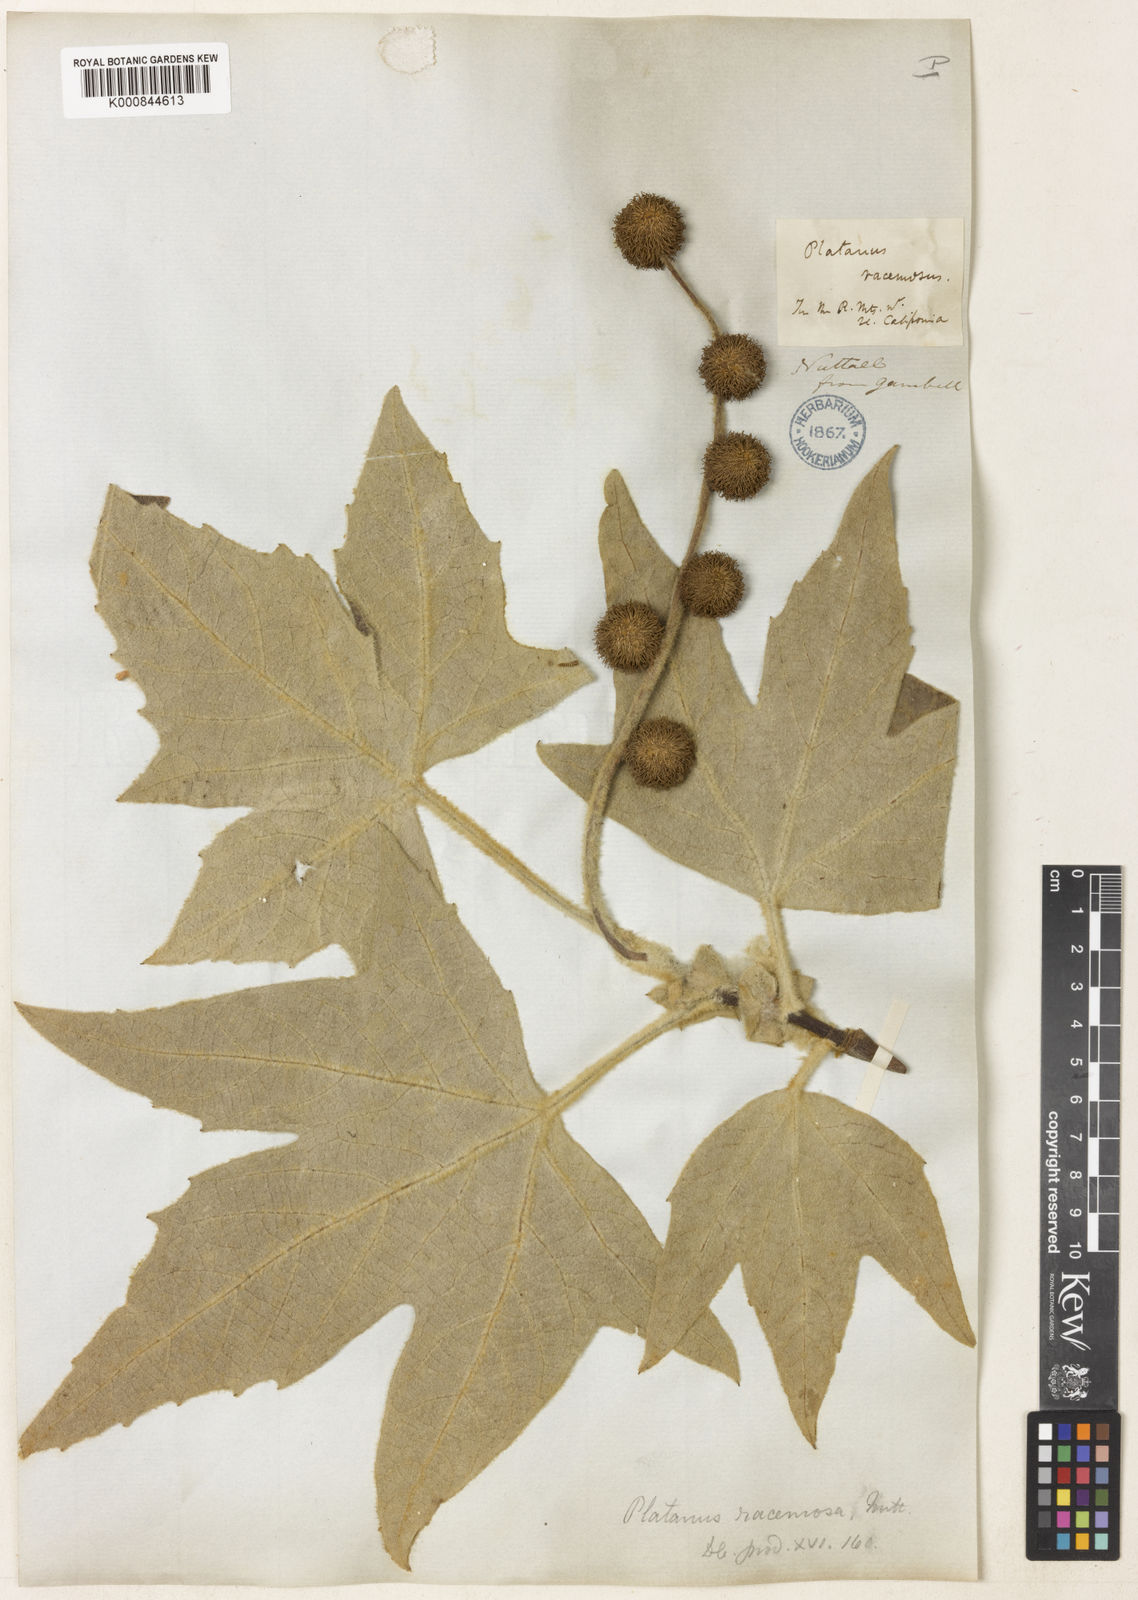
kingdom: Plantae
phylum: Tracheophyta
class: Magnoliopsida
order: Proteales
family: Platanaceae
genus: Platanus
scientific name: Platanus racemosa
